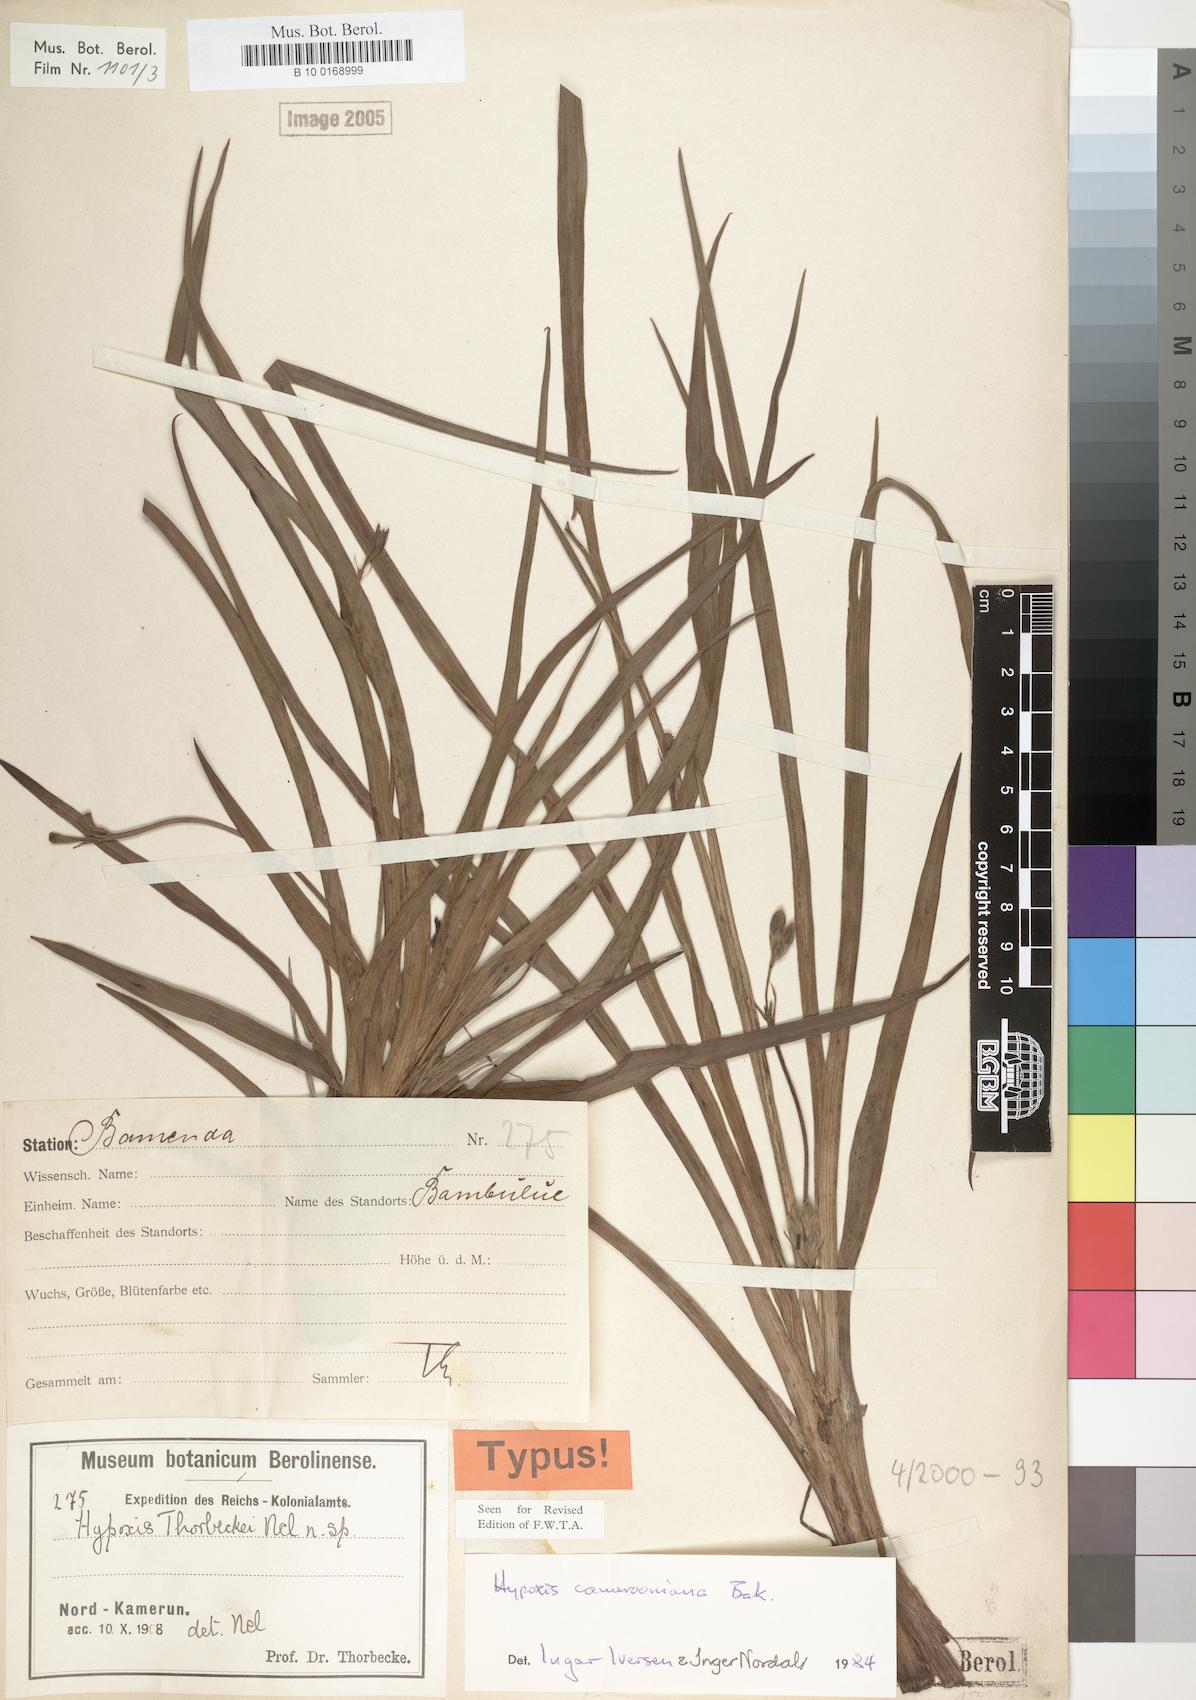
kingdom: Plantae
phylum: Tracheophyta
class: Liliopsida
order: Asparagales
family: Hypoxidaceae
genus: Hypoxis
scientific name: Hypoxis camerooniana
